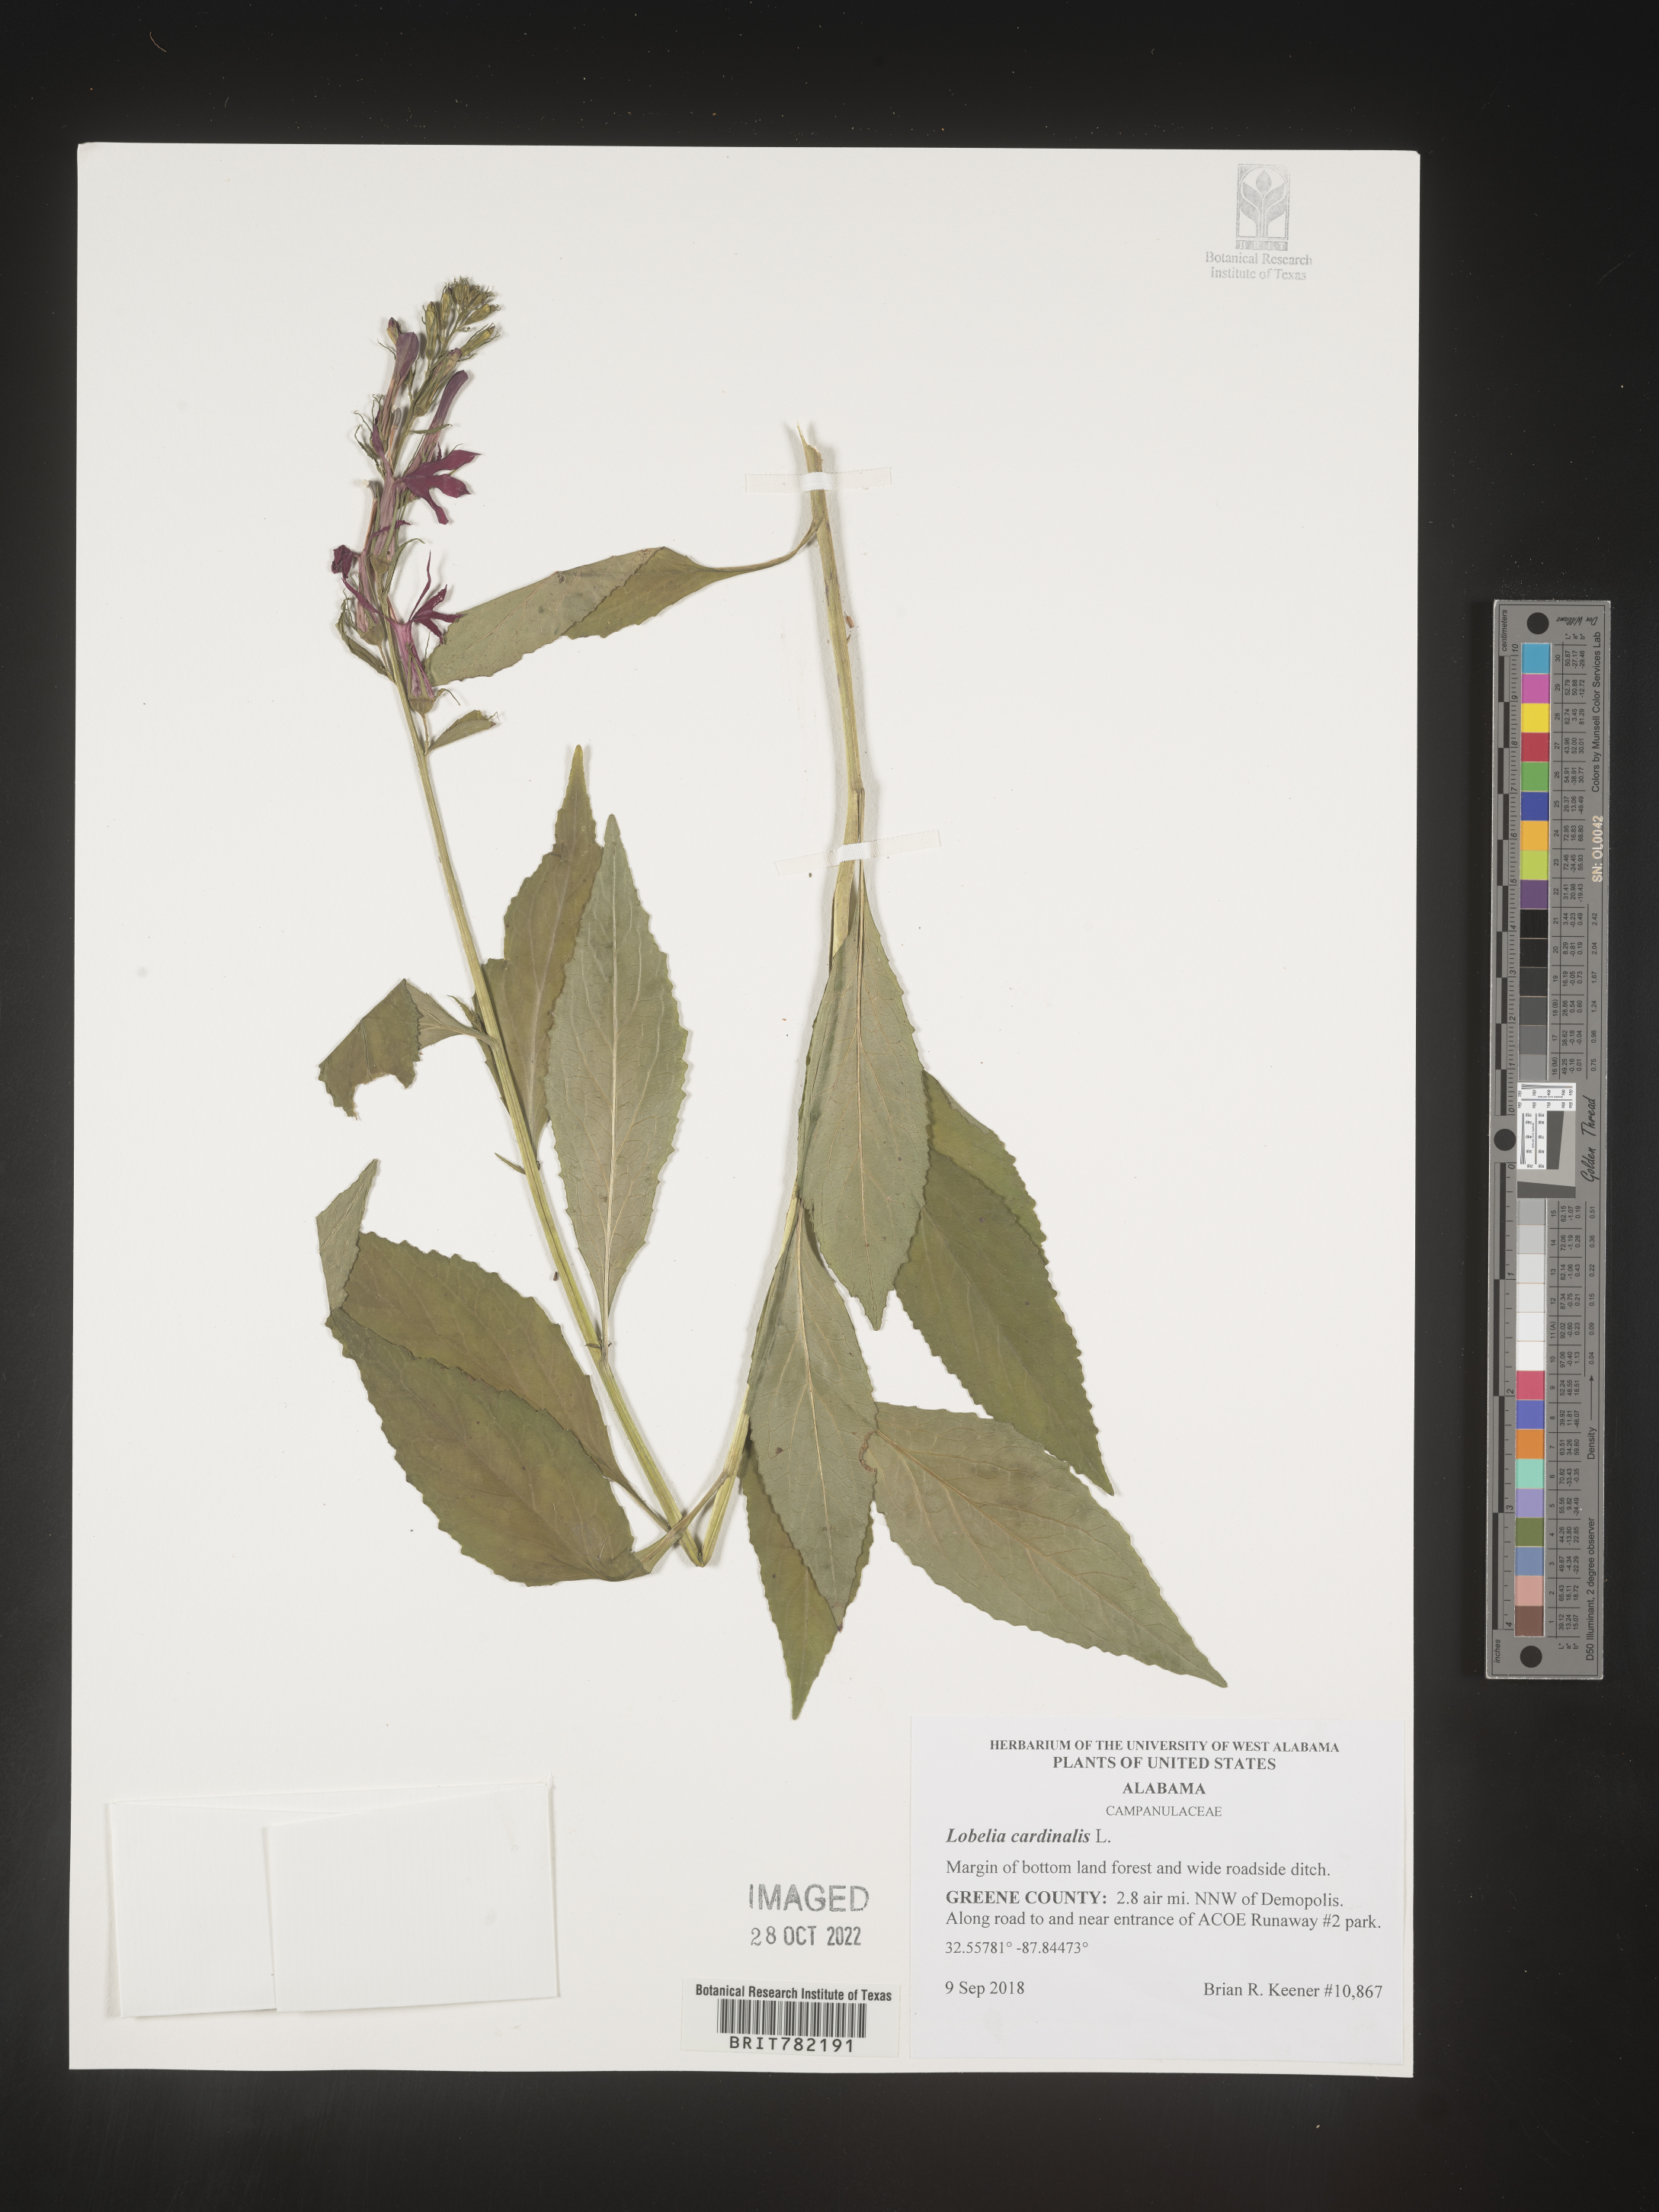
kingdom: Plantae
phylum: Tracheophyta
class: Magnoliopsida
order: Asterales
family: Campanulaceae
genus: Lobelia
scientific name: Lobelia cardinalis
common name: Cardinal flower
